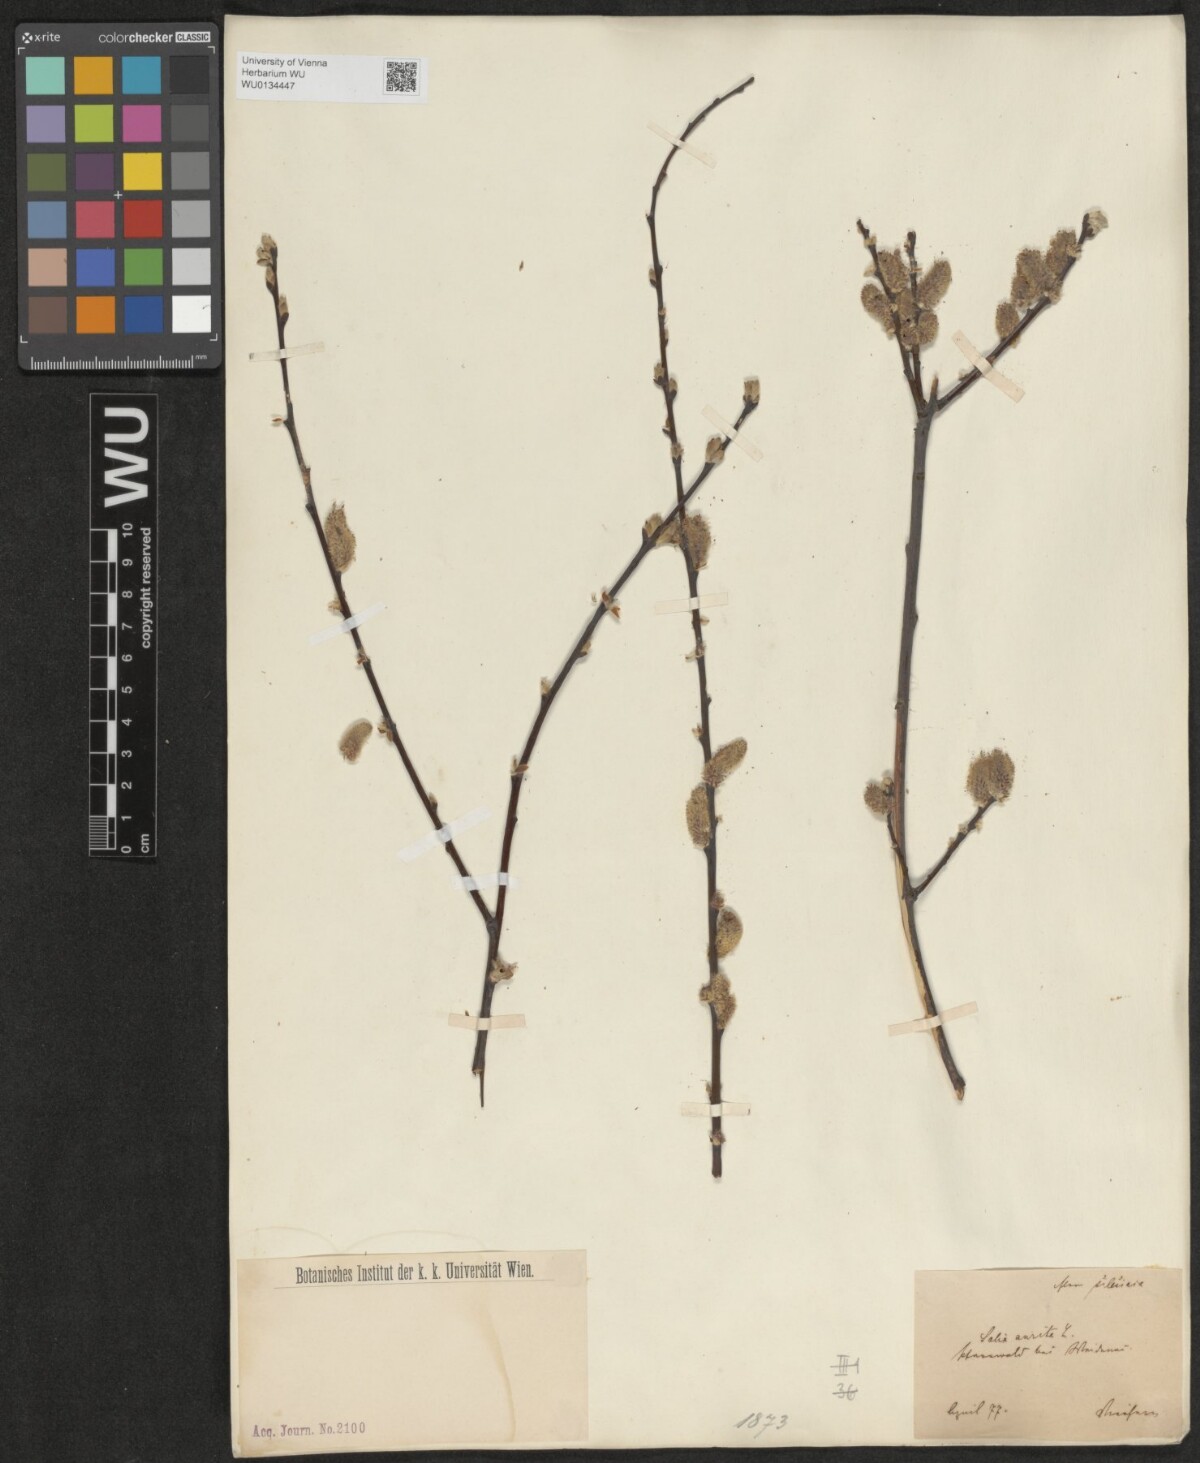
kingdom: Plantae
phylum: Tracheophyta
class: Magnoliopsida
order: Malpighiales
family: Salicaceae
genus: Salix
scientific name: Salix aurita
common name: Eared willow
